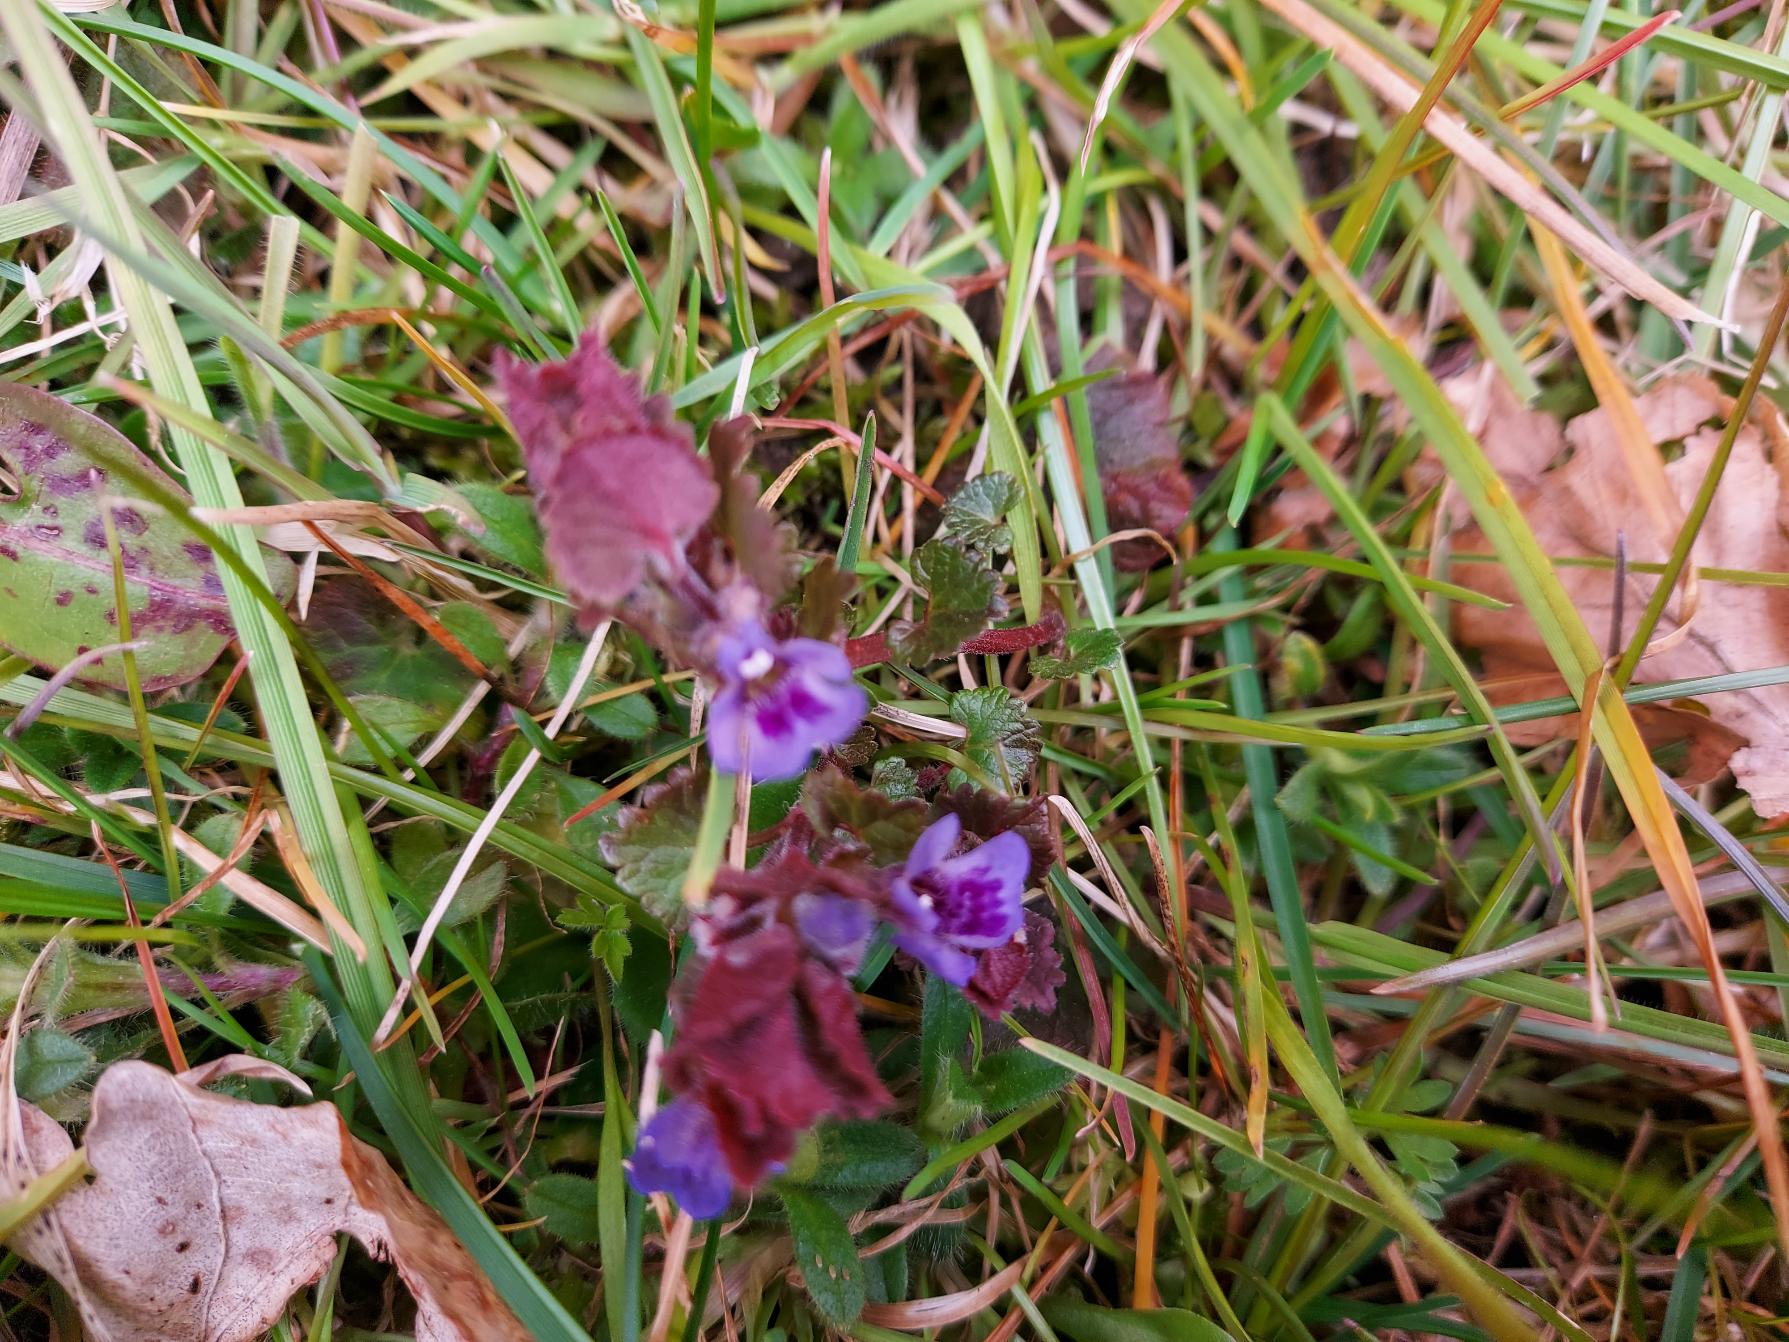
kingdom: Plantae
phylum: Tracheophyta
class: Magnoliopsida
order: Lamiales
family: Lamiaceae
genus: Glechoma
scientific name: Glechoma hederacea
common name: Korsknap
